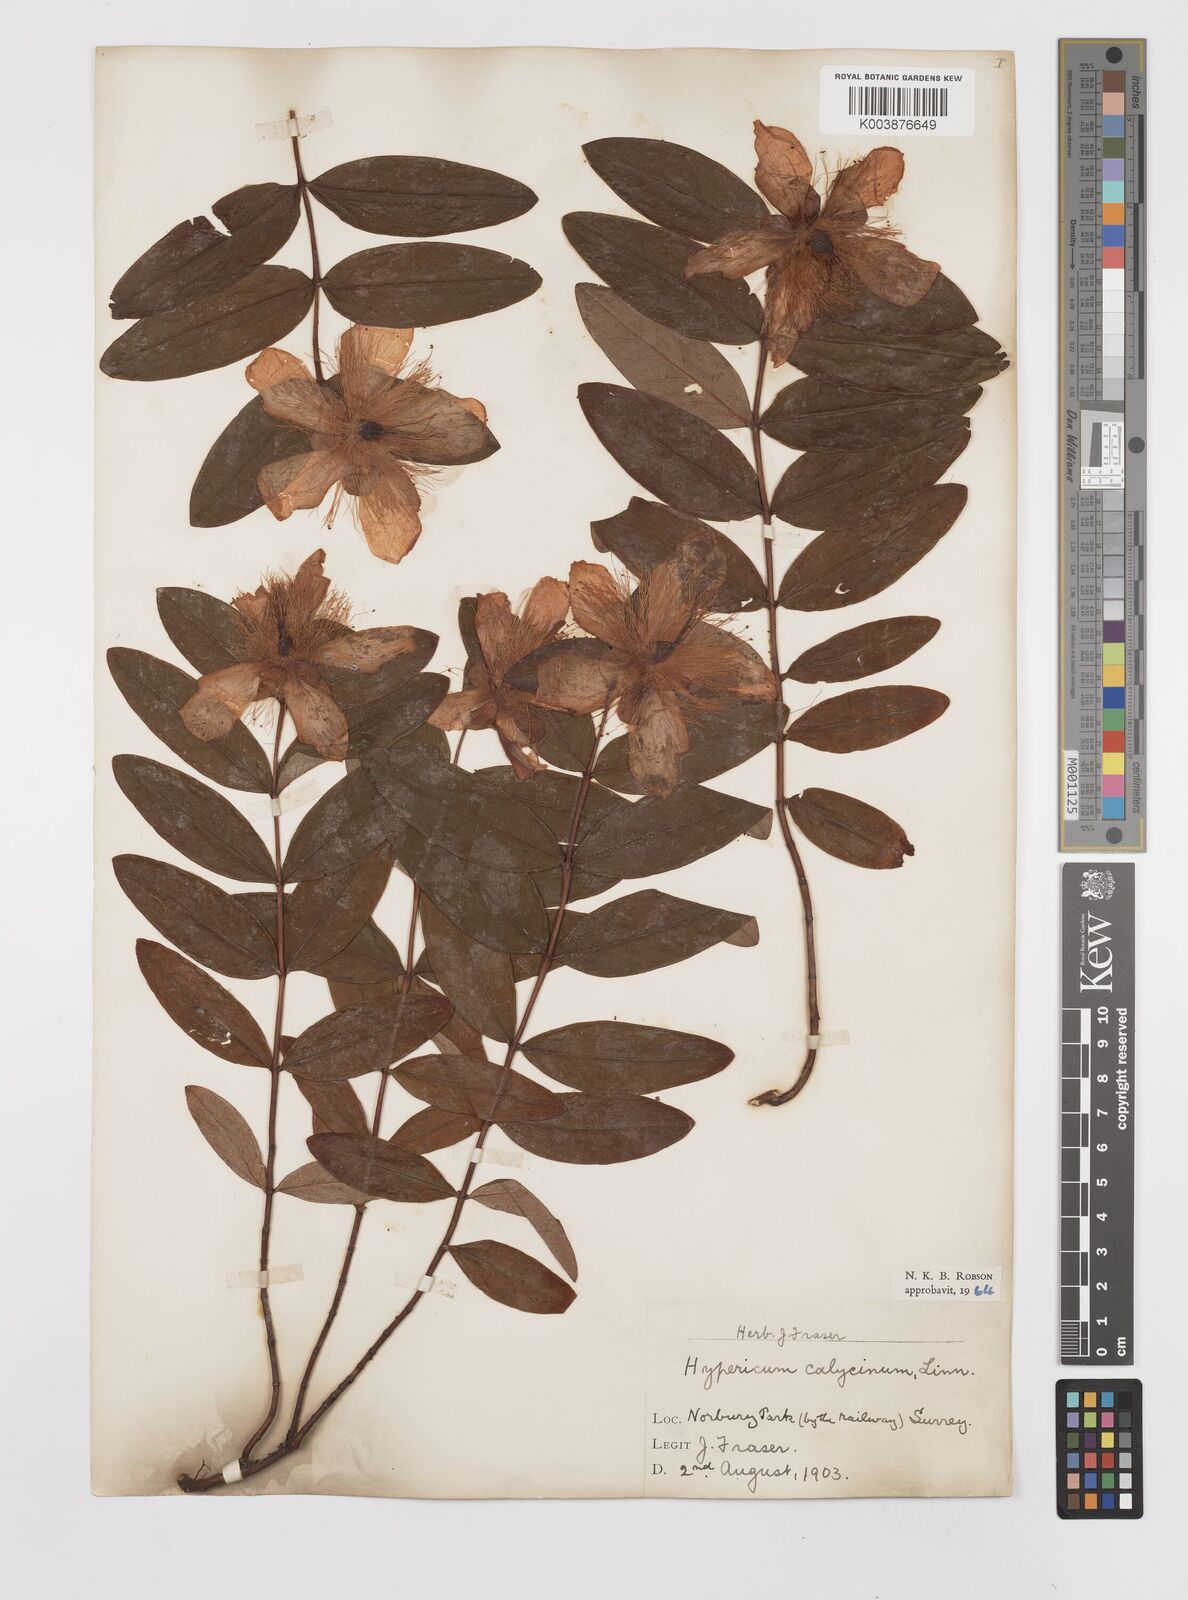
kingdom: Plantae
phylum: Tracheophyta
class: Magnoliopsida
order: Malpighiales
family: Hypericaceae
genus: Hypericum
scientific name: Hypericum calycinum
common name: Rose-of-sharon
